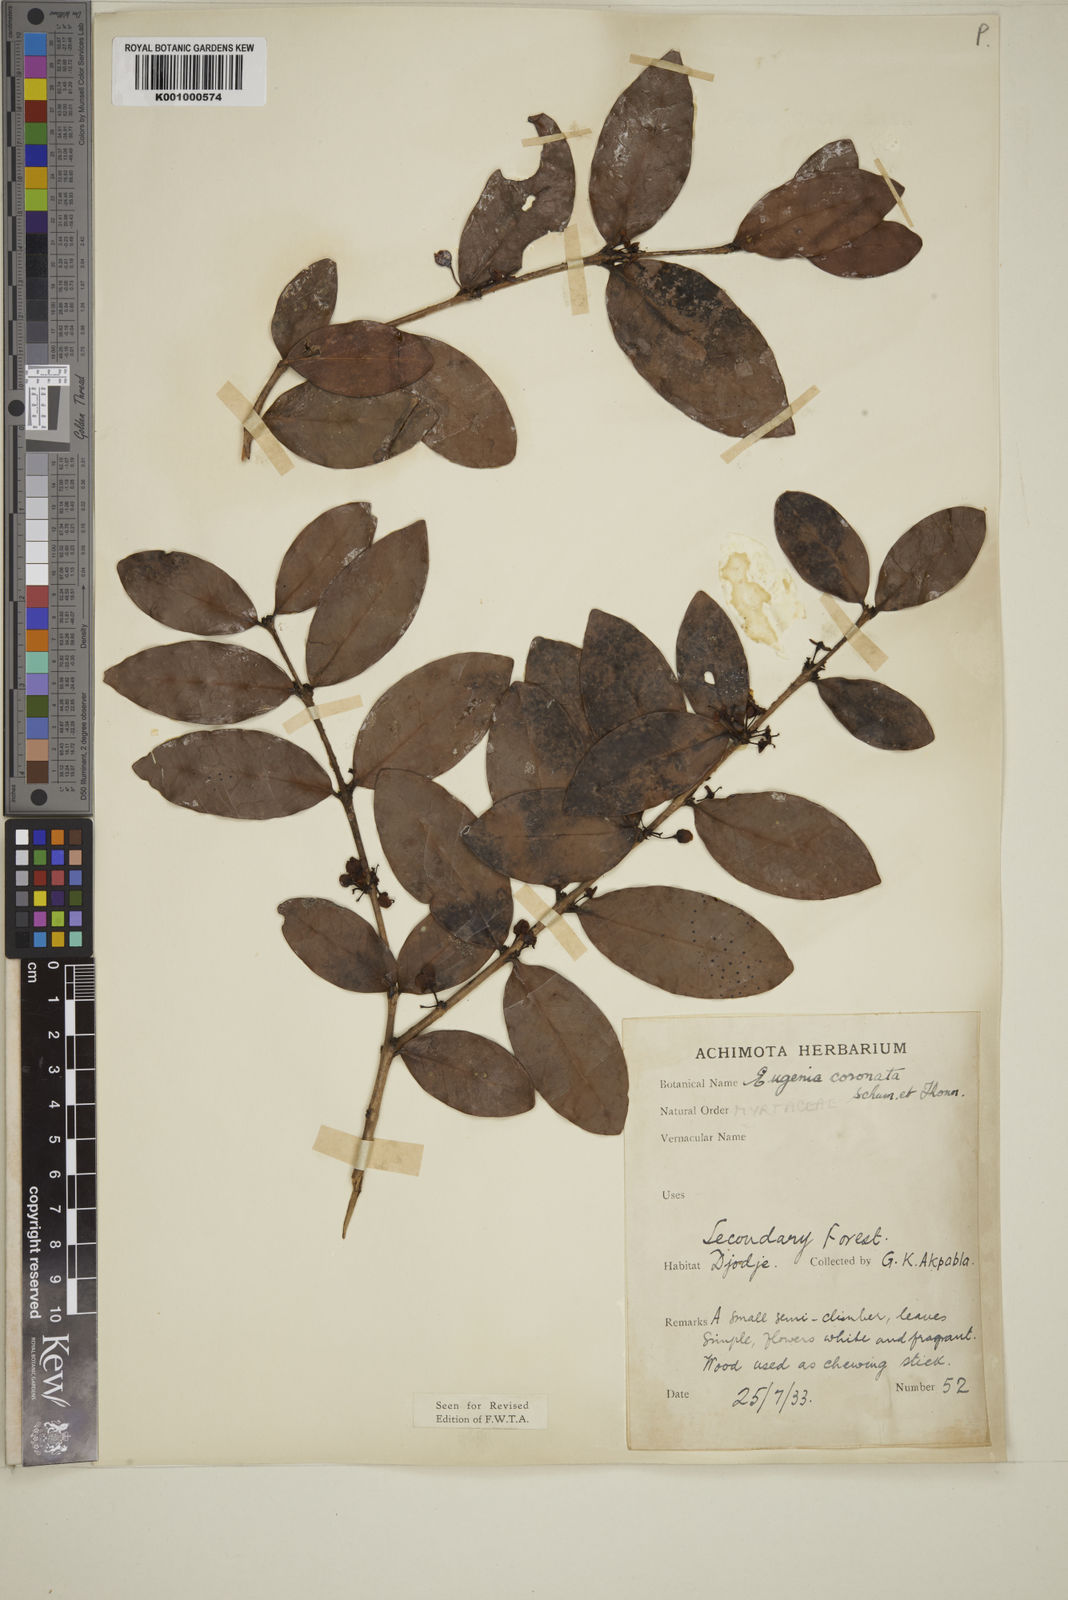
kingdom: Plantae
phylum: Tracheophyta
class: Magnoliopsida
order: Myrtales
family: Myrtaceae
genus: Eugenia
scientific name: Eugenia coronata
